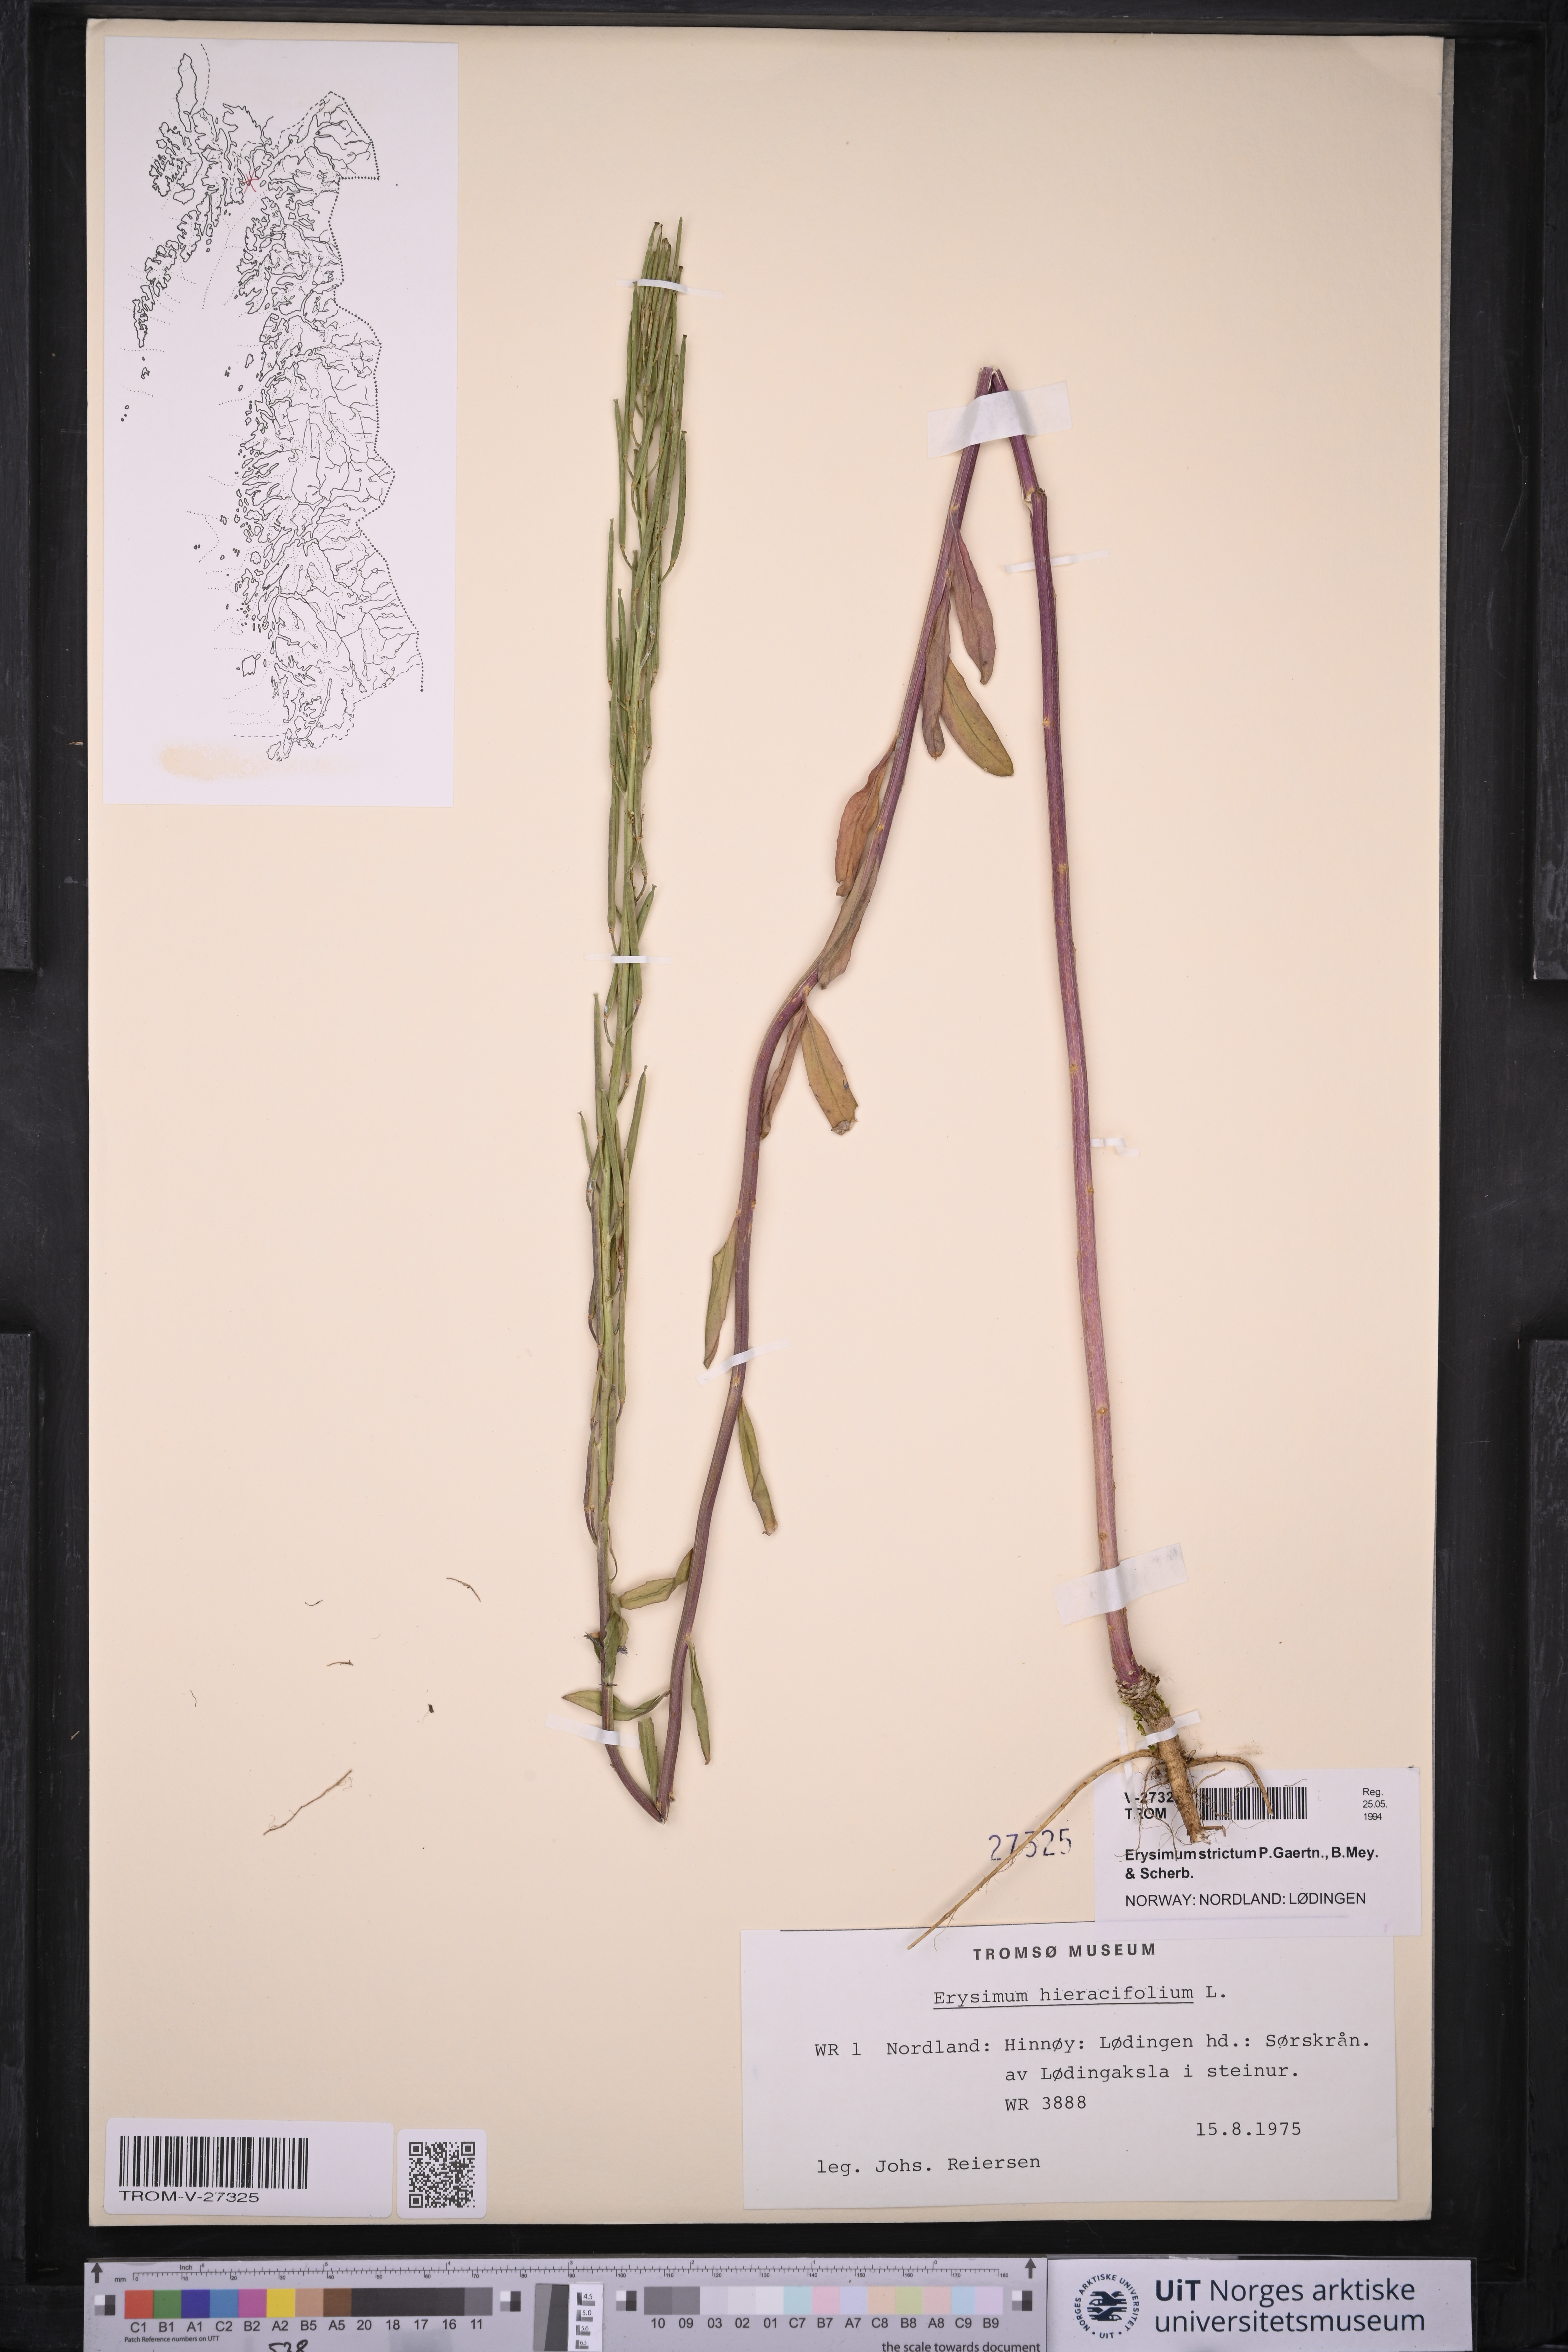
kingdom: Plantae
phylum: Tracheophyta
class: Magnoliopsida
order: Brassicales
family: Brassicaceae
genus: Erysimum
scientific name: Erysimum virgatum
